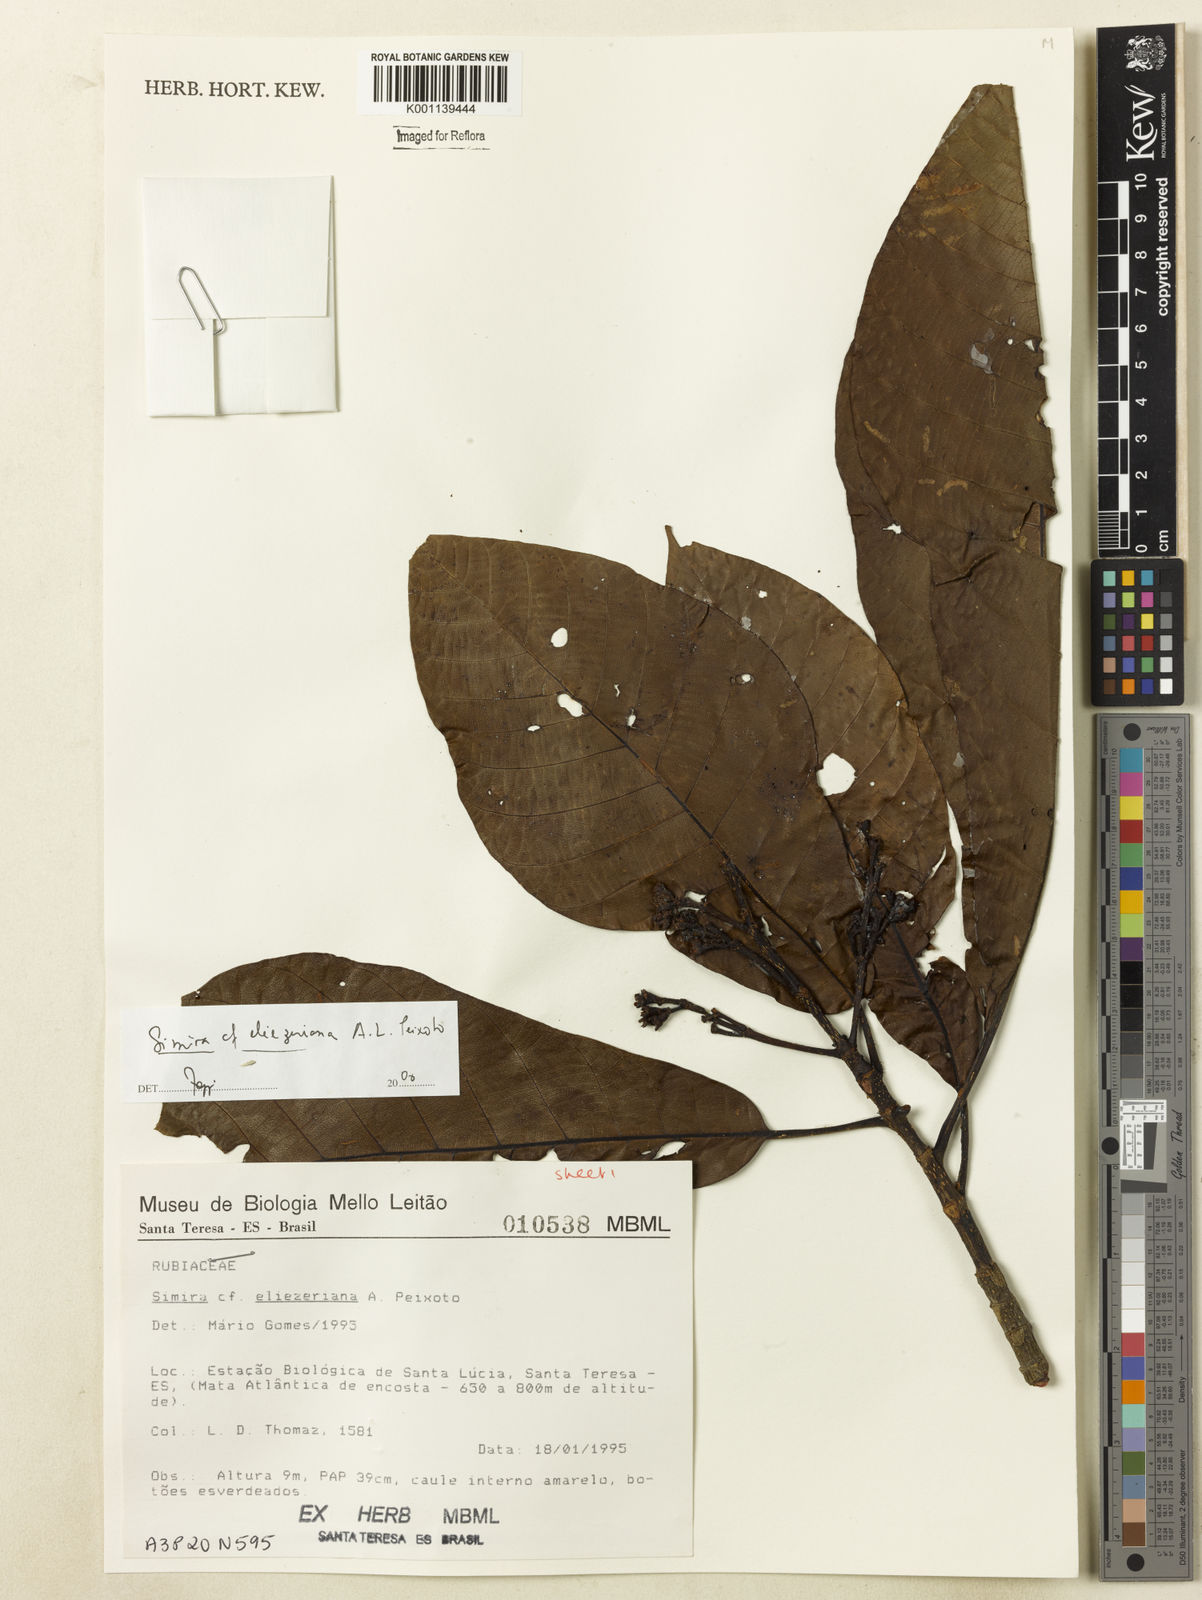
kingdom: Plantae
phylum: Tracheophyta
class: Magnoliopsida
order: Gentianales
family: Rubiaceae
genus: Simira
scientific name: Simira eliezeriana
